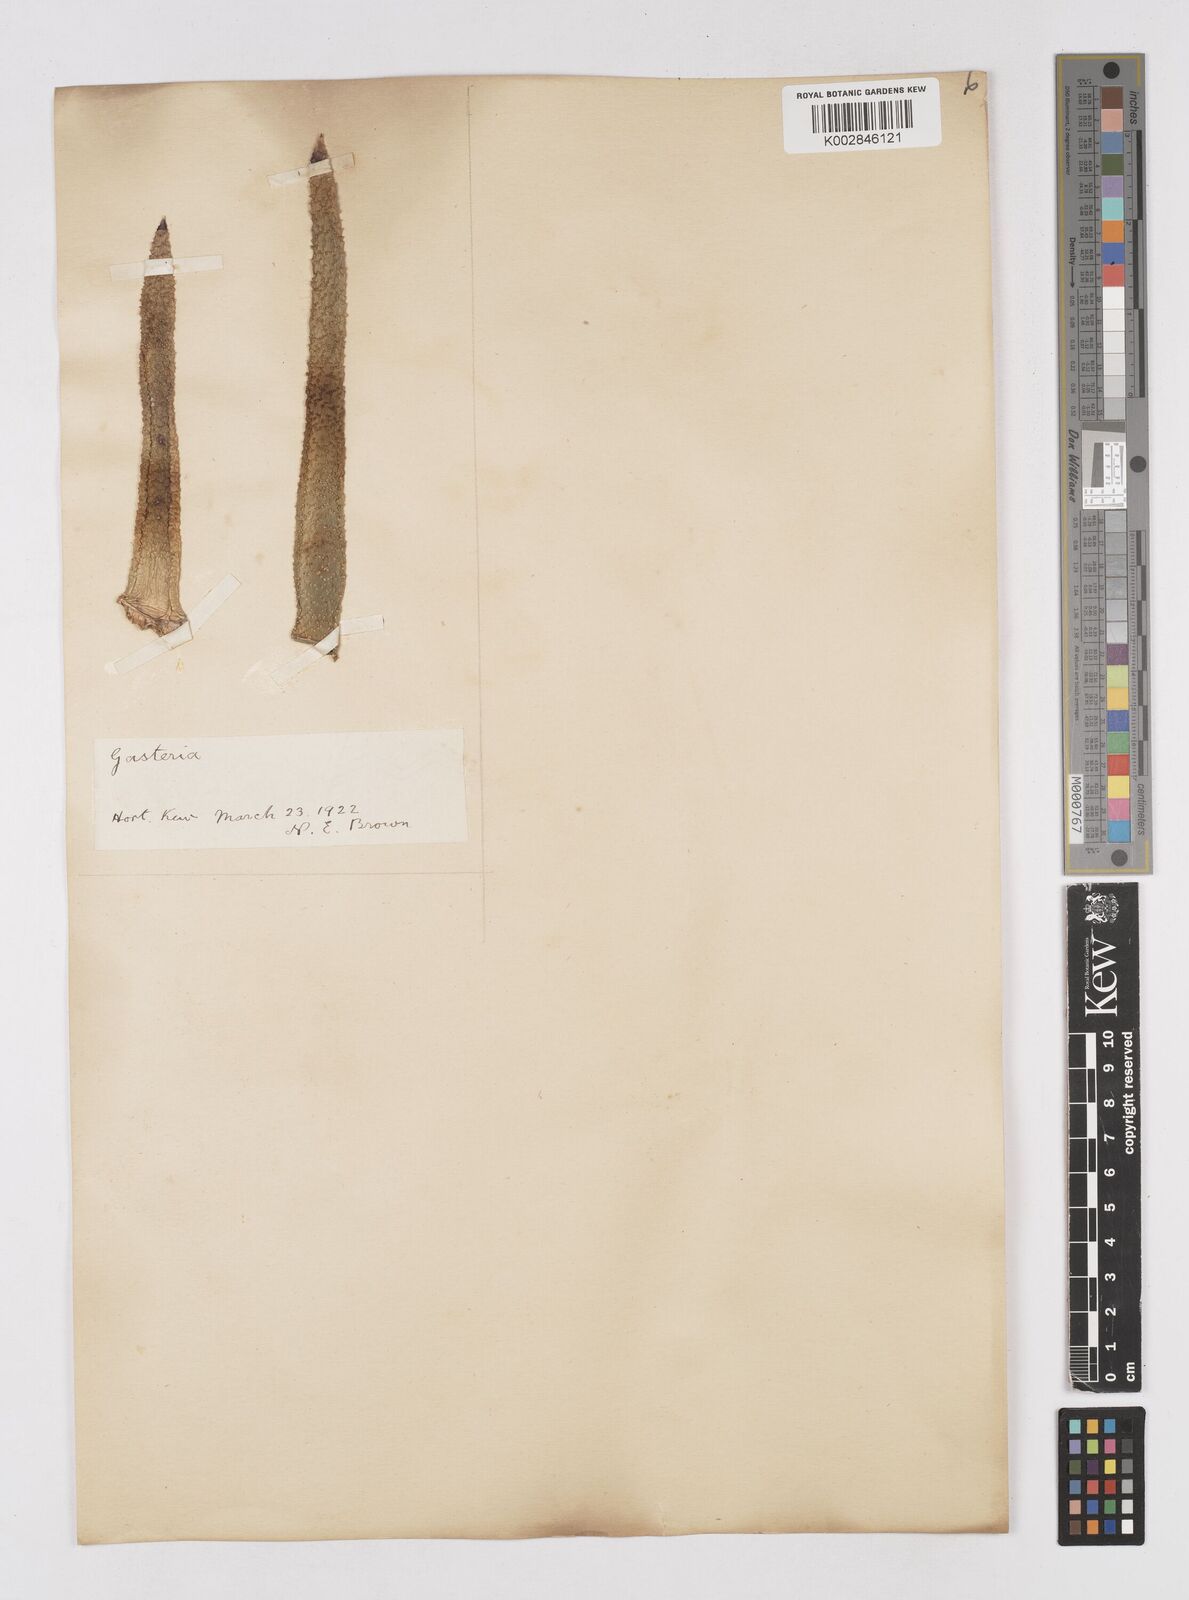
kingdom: Plantae
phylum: Tracheophyta
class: Liliopsida
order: Asparagales
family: Asphodelaceae
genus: Gasteria
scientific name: Gasteria
